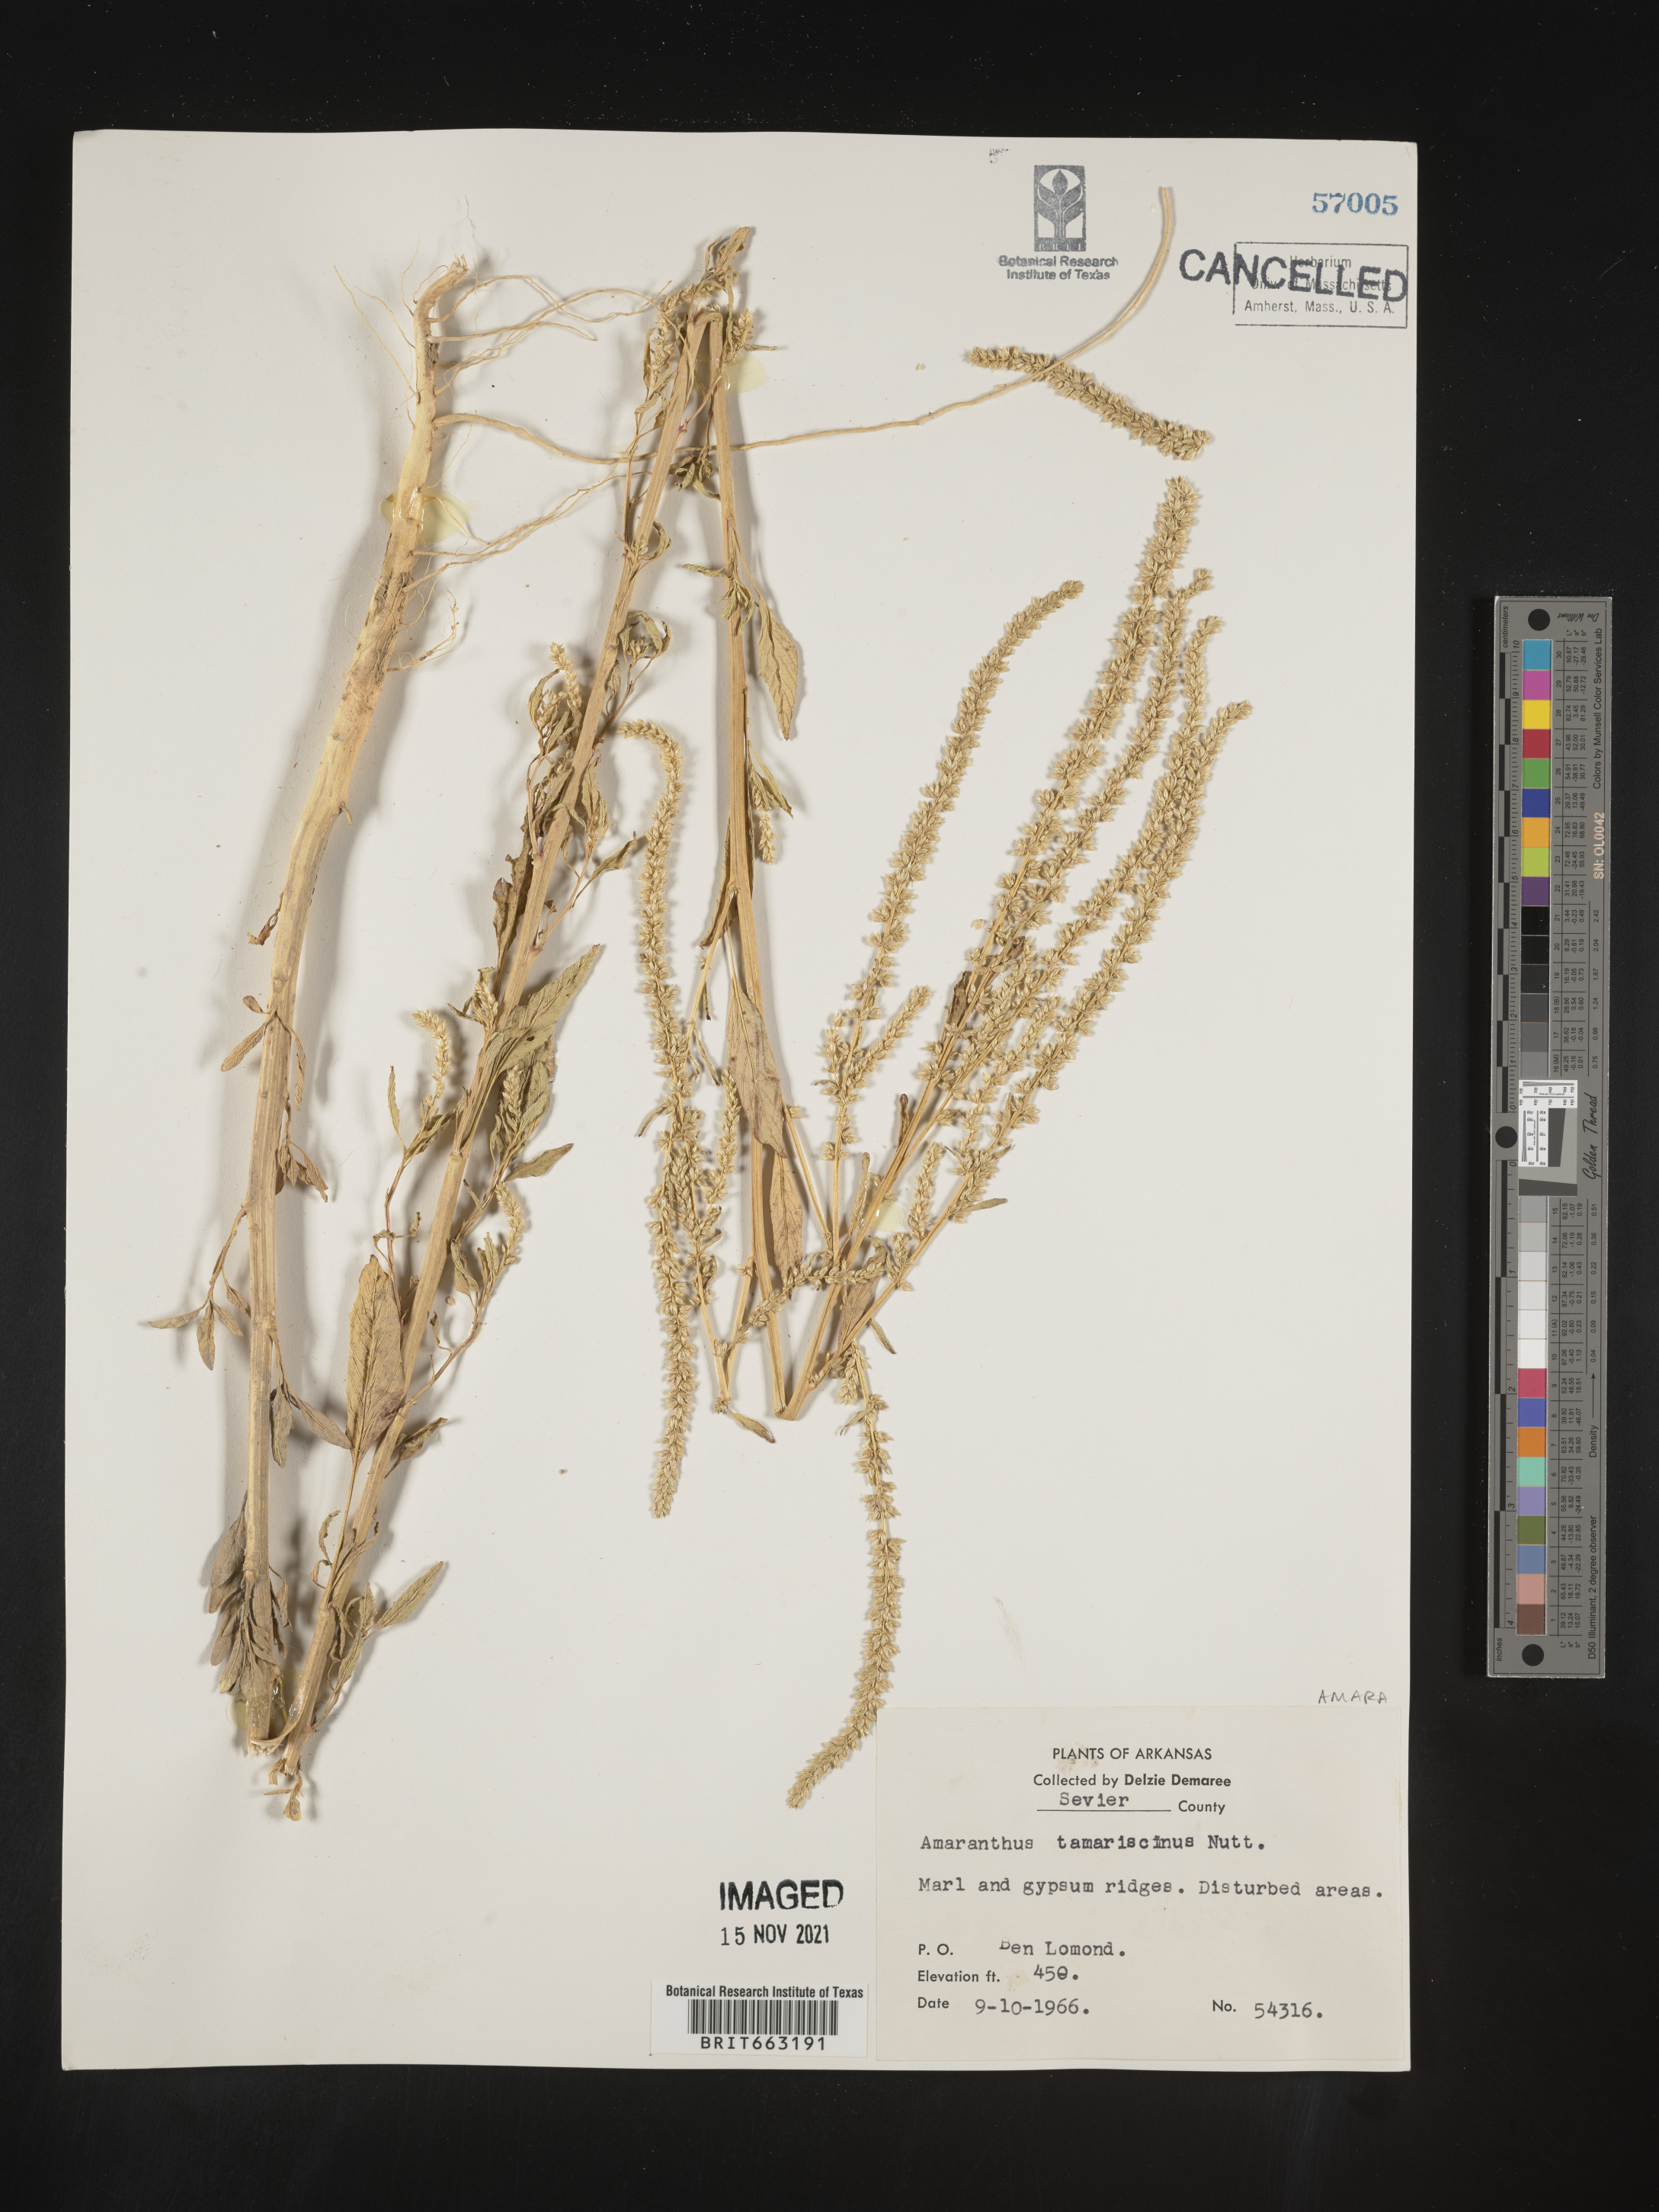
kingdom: Plantae
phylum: Tracheophyta
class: Magnoliopsida
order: Caryophyllales
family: Amaranthaceae
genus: Amaranthus
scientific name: Amaranthus tamariscinus
